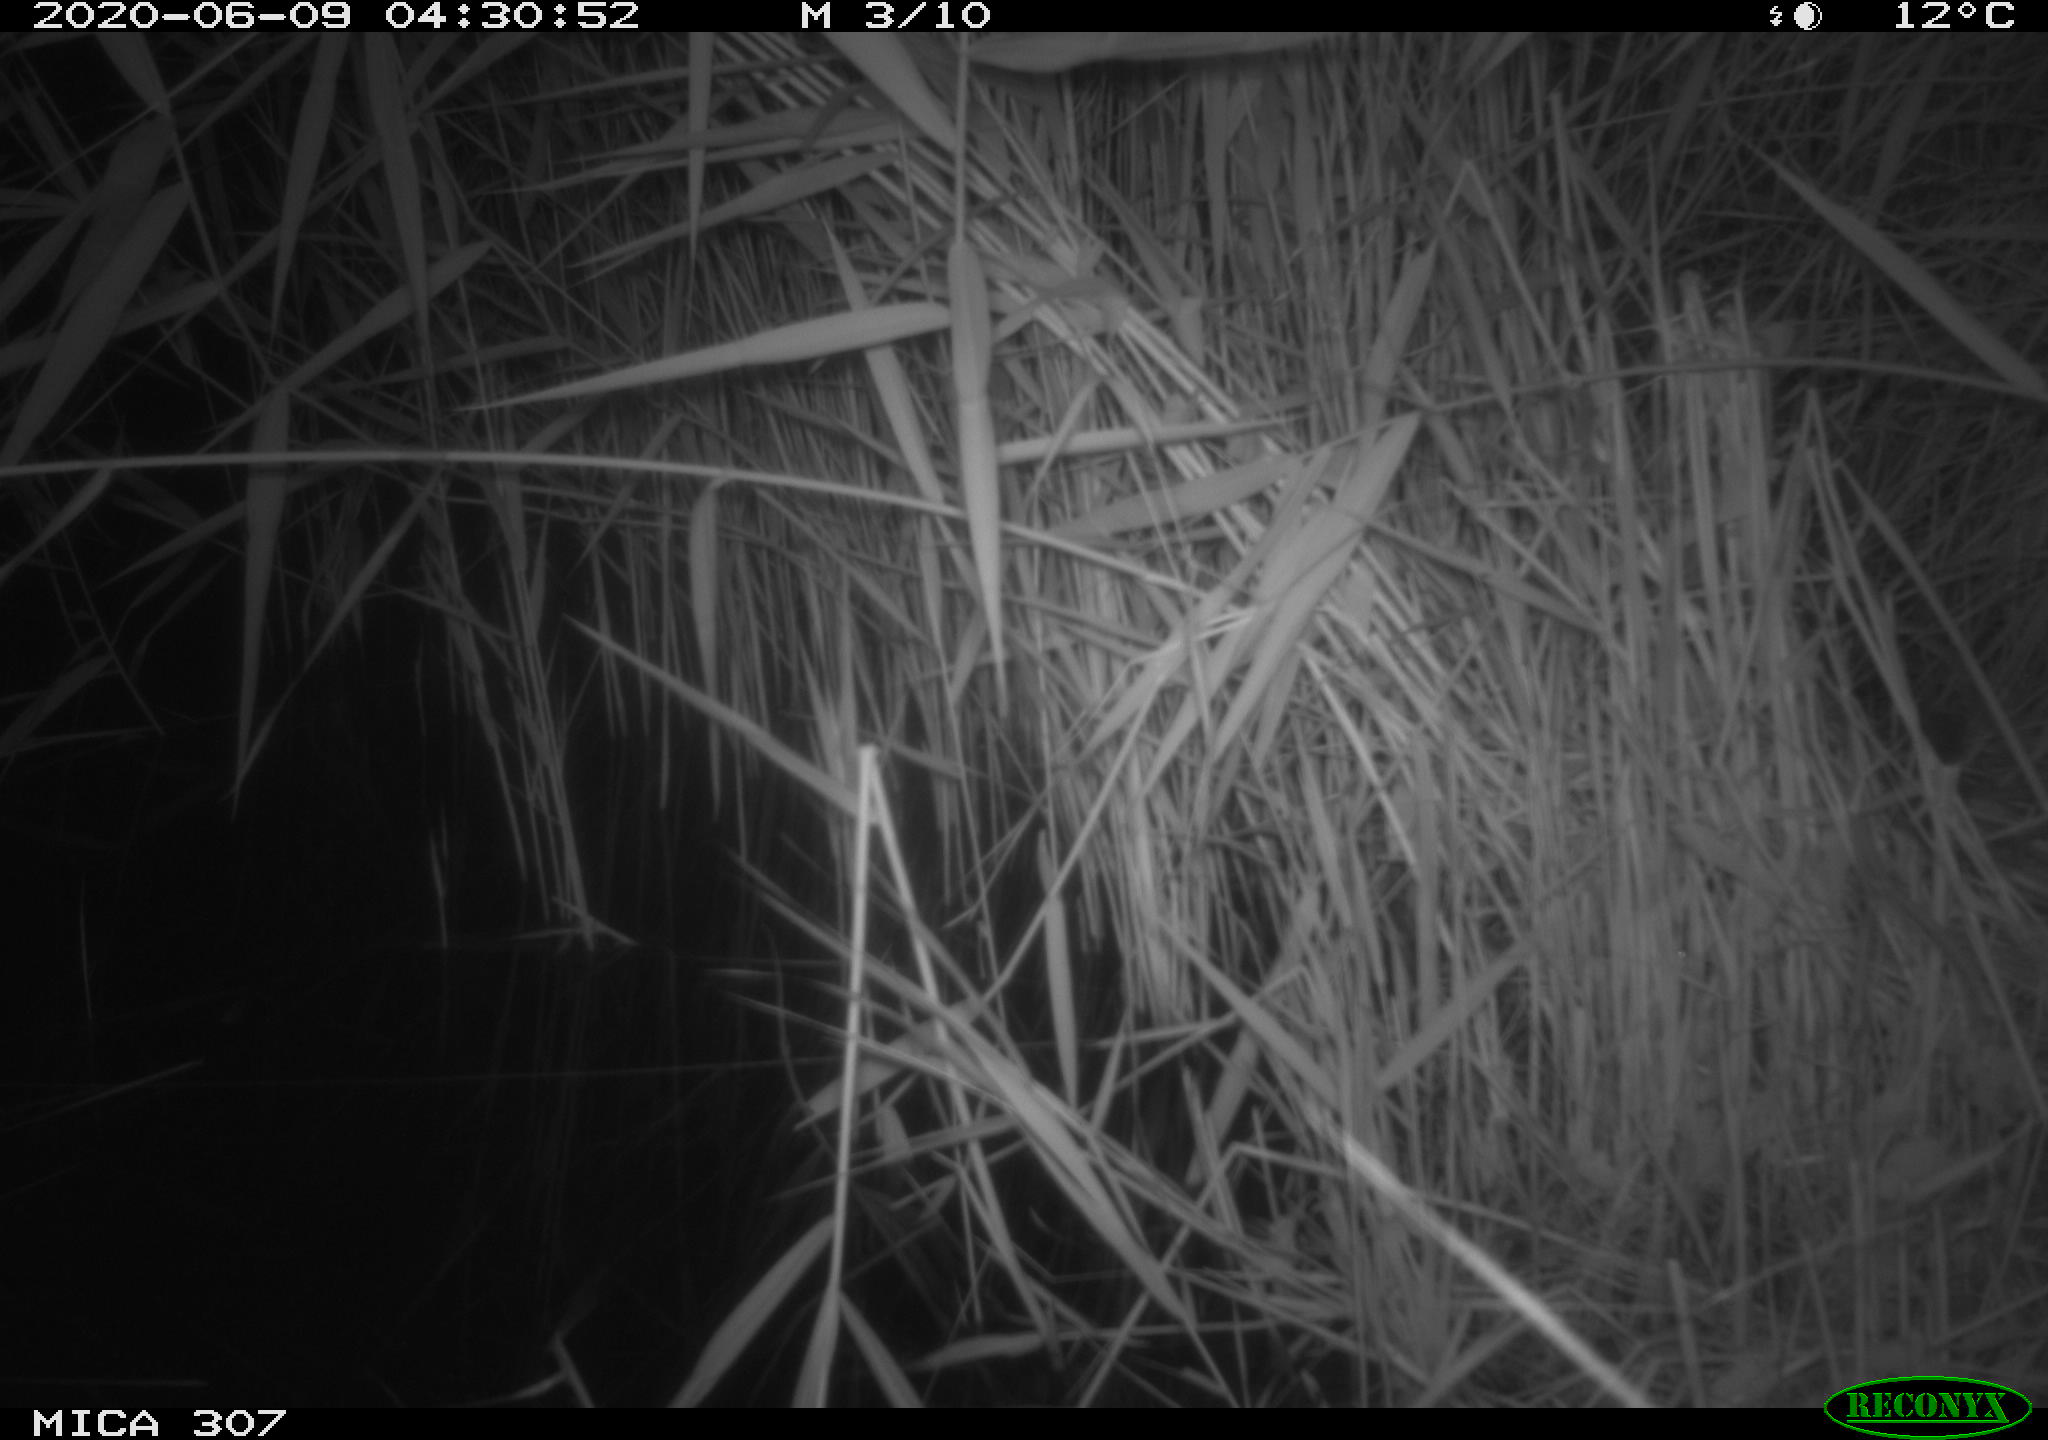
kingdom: Animalia
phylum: Chordata
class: Mammalia
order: Rodentia
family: Muridae
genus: Rattus
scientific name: Rattus norvegicus
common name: Brown rat
